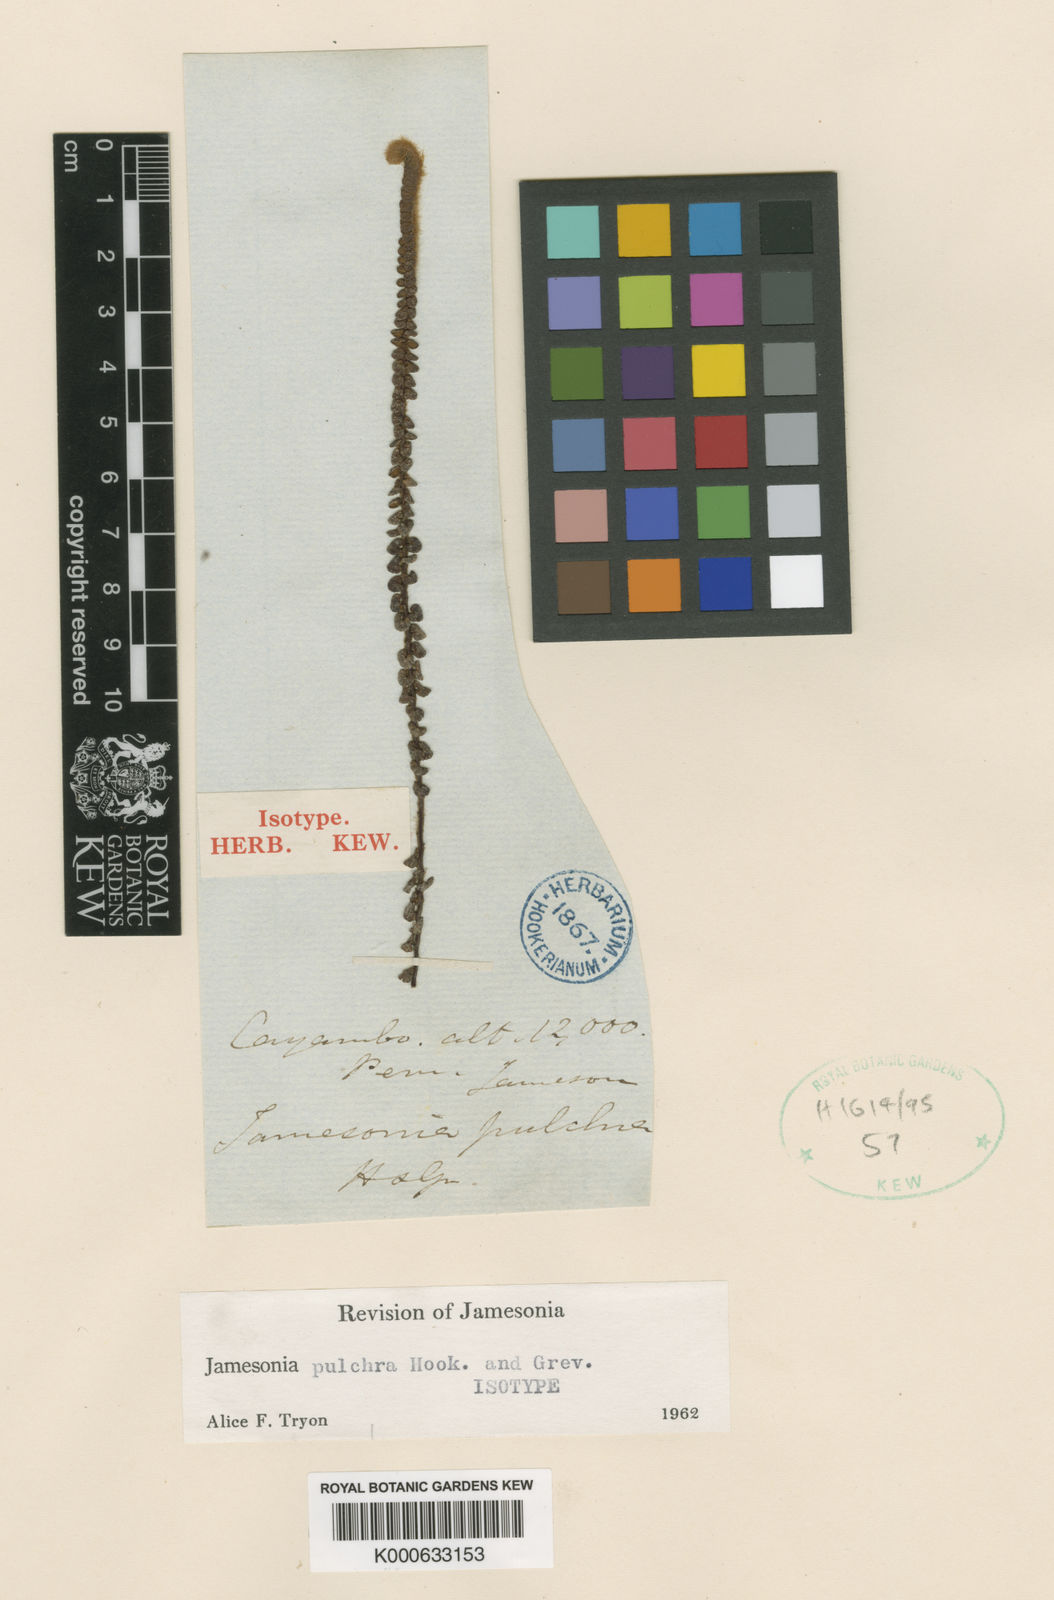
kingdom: Plantae
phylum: Tracheophyta
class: Polypodiopsida
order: Polypodiales
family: Pteridaceae
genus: Jamesonia
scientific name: Jamesonia pulchra
